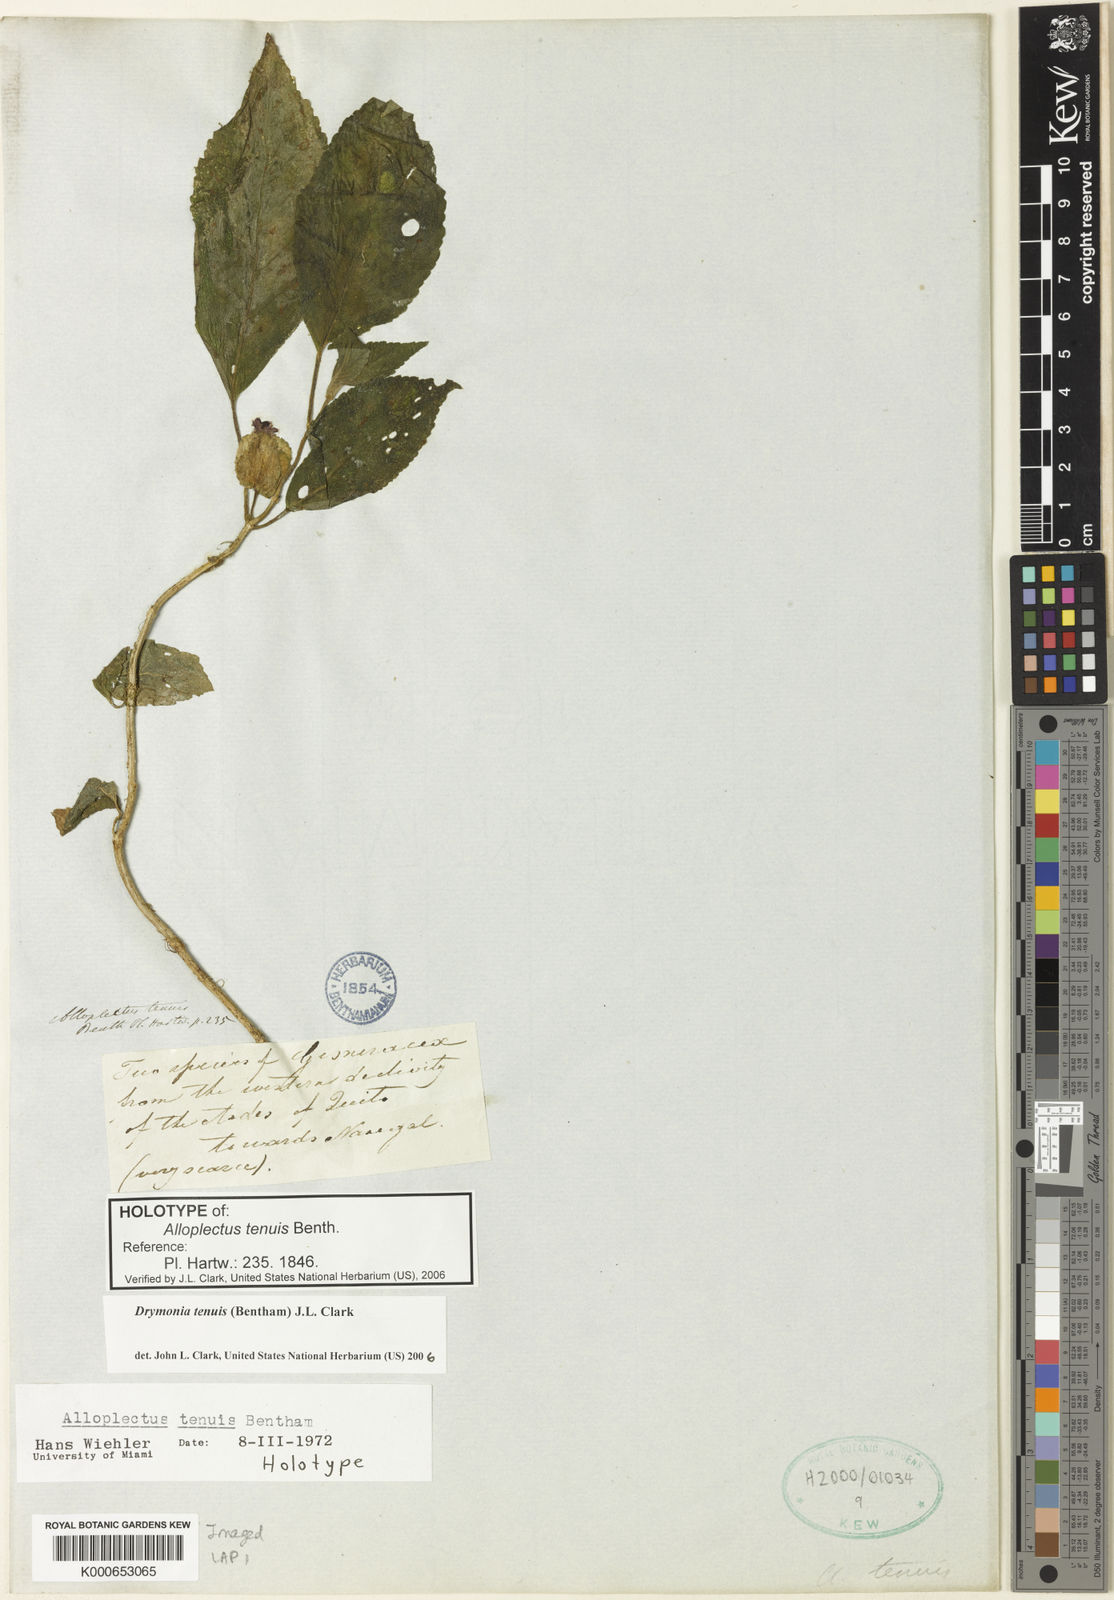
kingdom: Plantae
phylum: Tracheophyta
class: Magnoliopsida
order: Lamiales
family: Gesneriaceae
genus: Drymonia
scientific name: Drymonia tenuis
